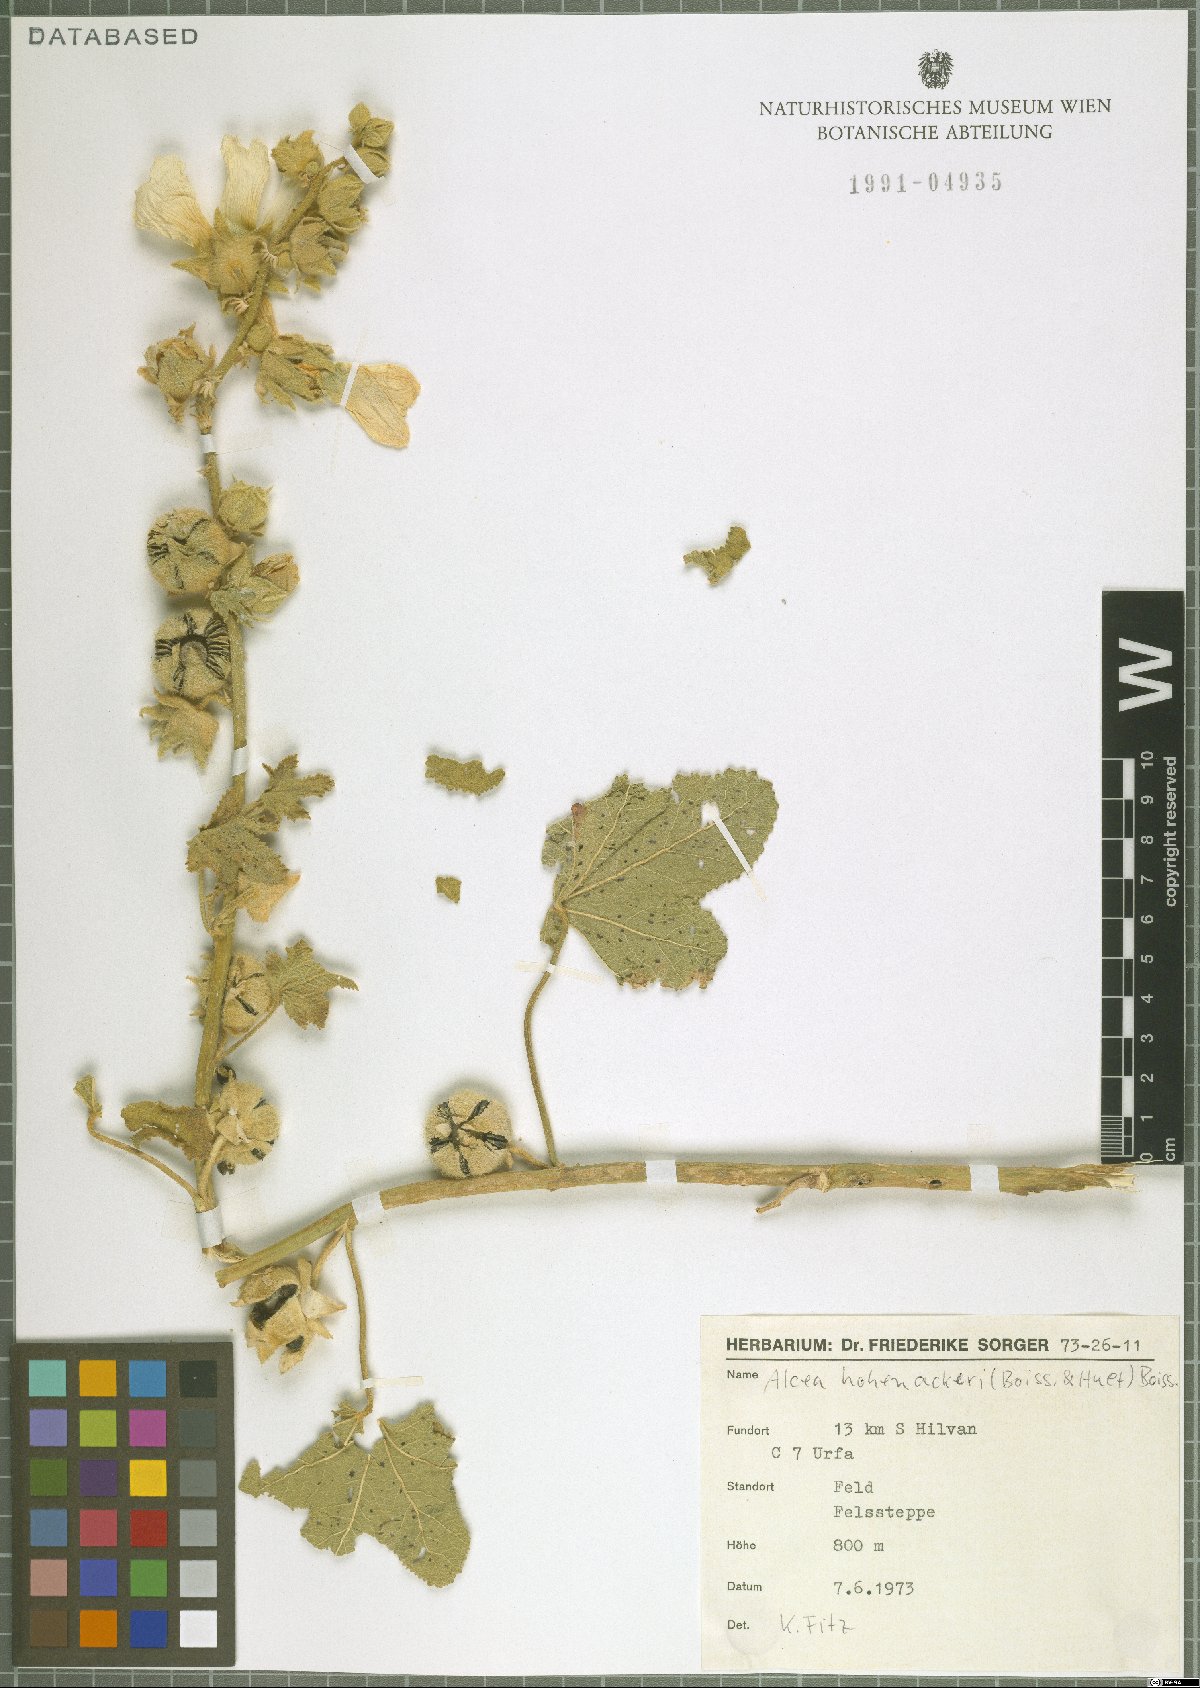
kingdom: Plantae
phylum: Tracheophyta
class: Magnoliopsida
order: Malvales
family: Malvaceae
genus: Alcea
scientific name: Alcea kurdica
